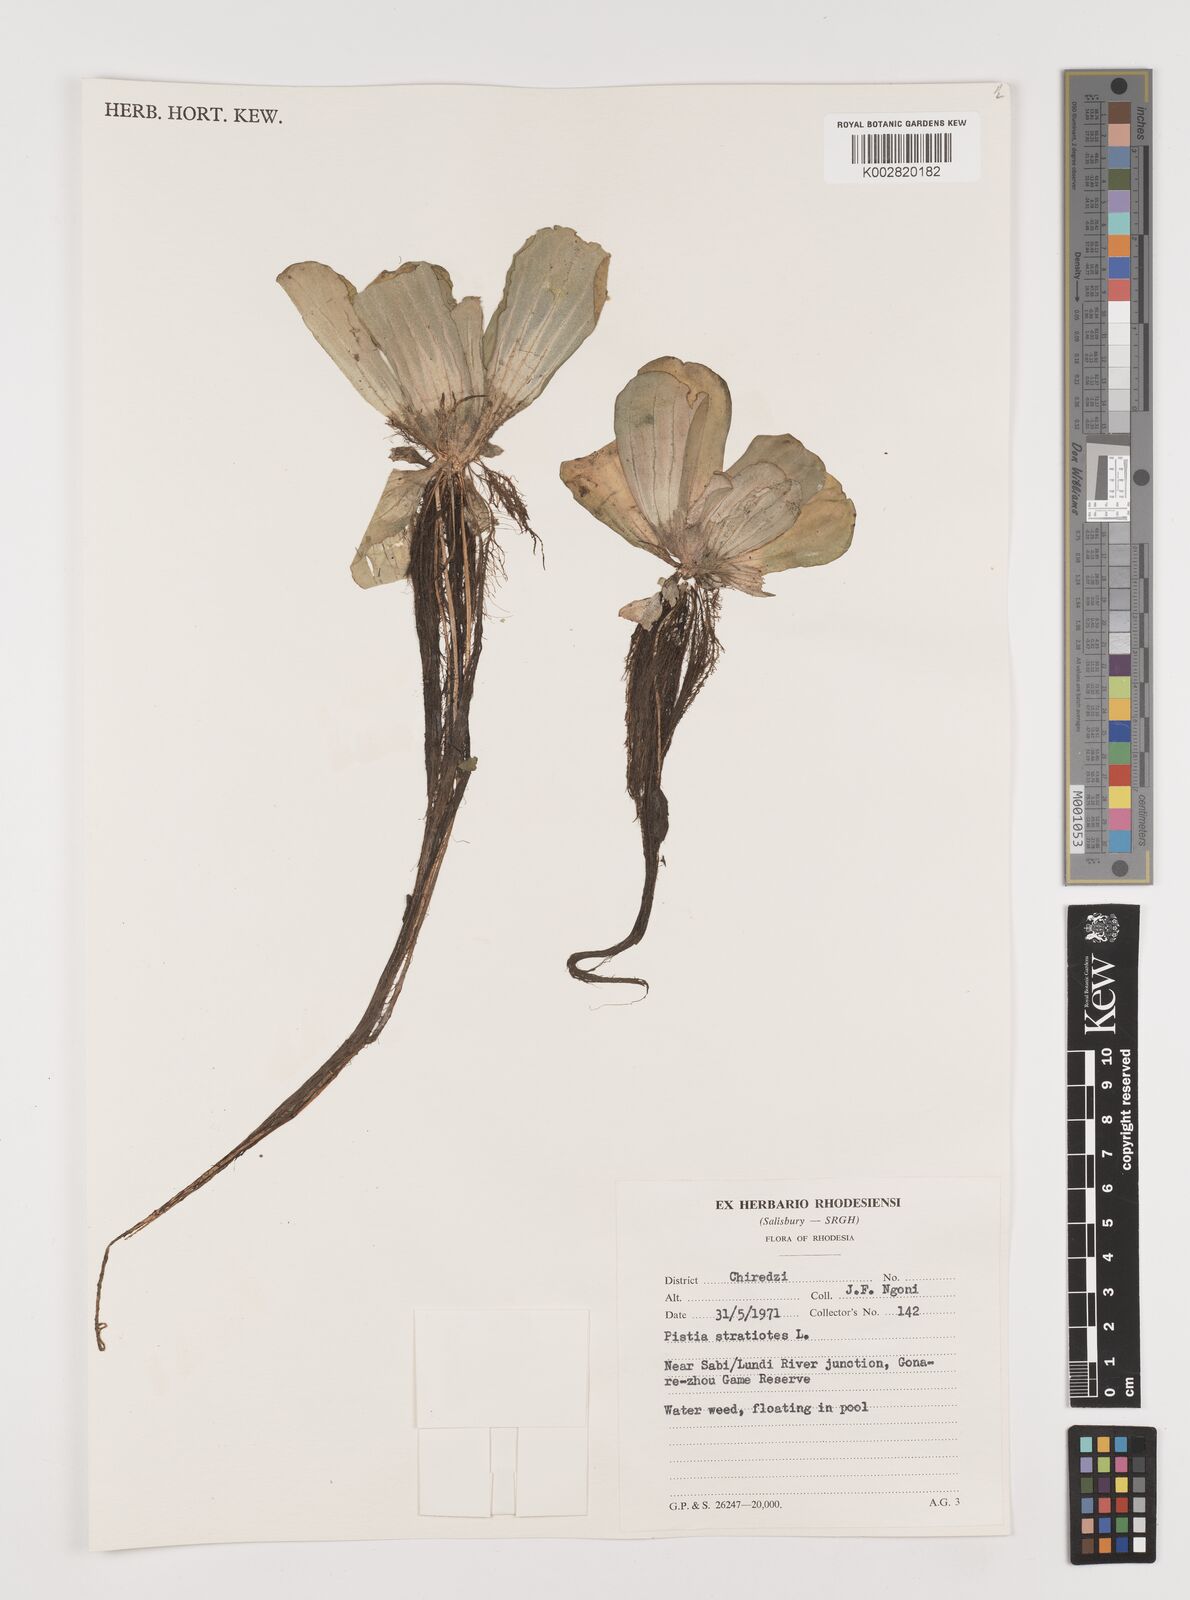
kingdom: Plantae
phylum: Tracheophyta
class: Liliopsida
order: Alismatales
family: Araceae
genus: Pistia
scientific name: Pistia stratiotes
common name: Water lettuce
